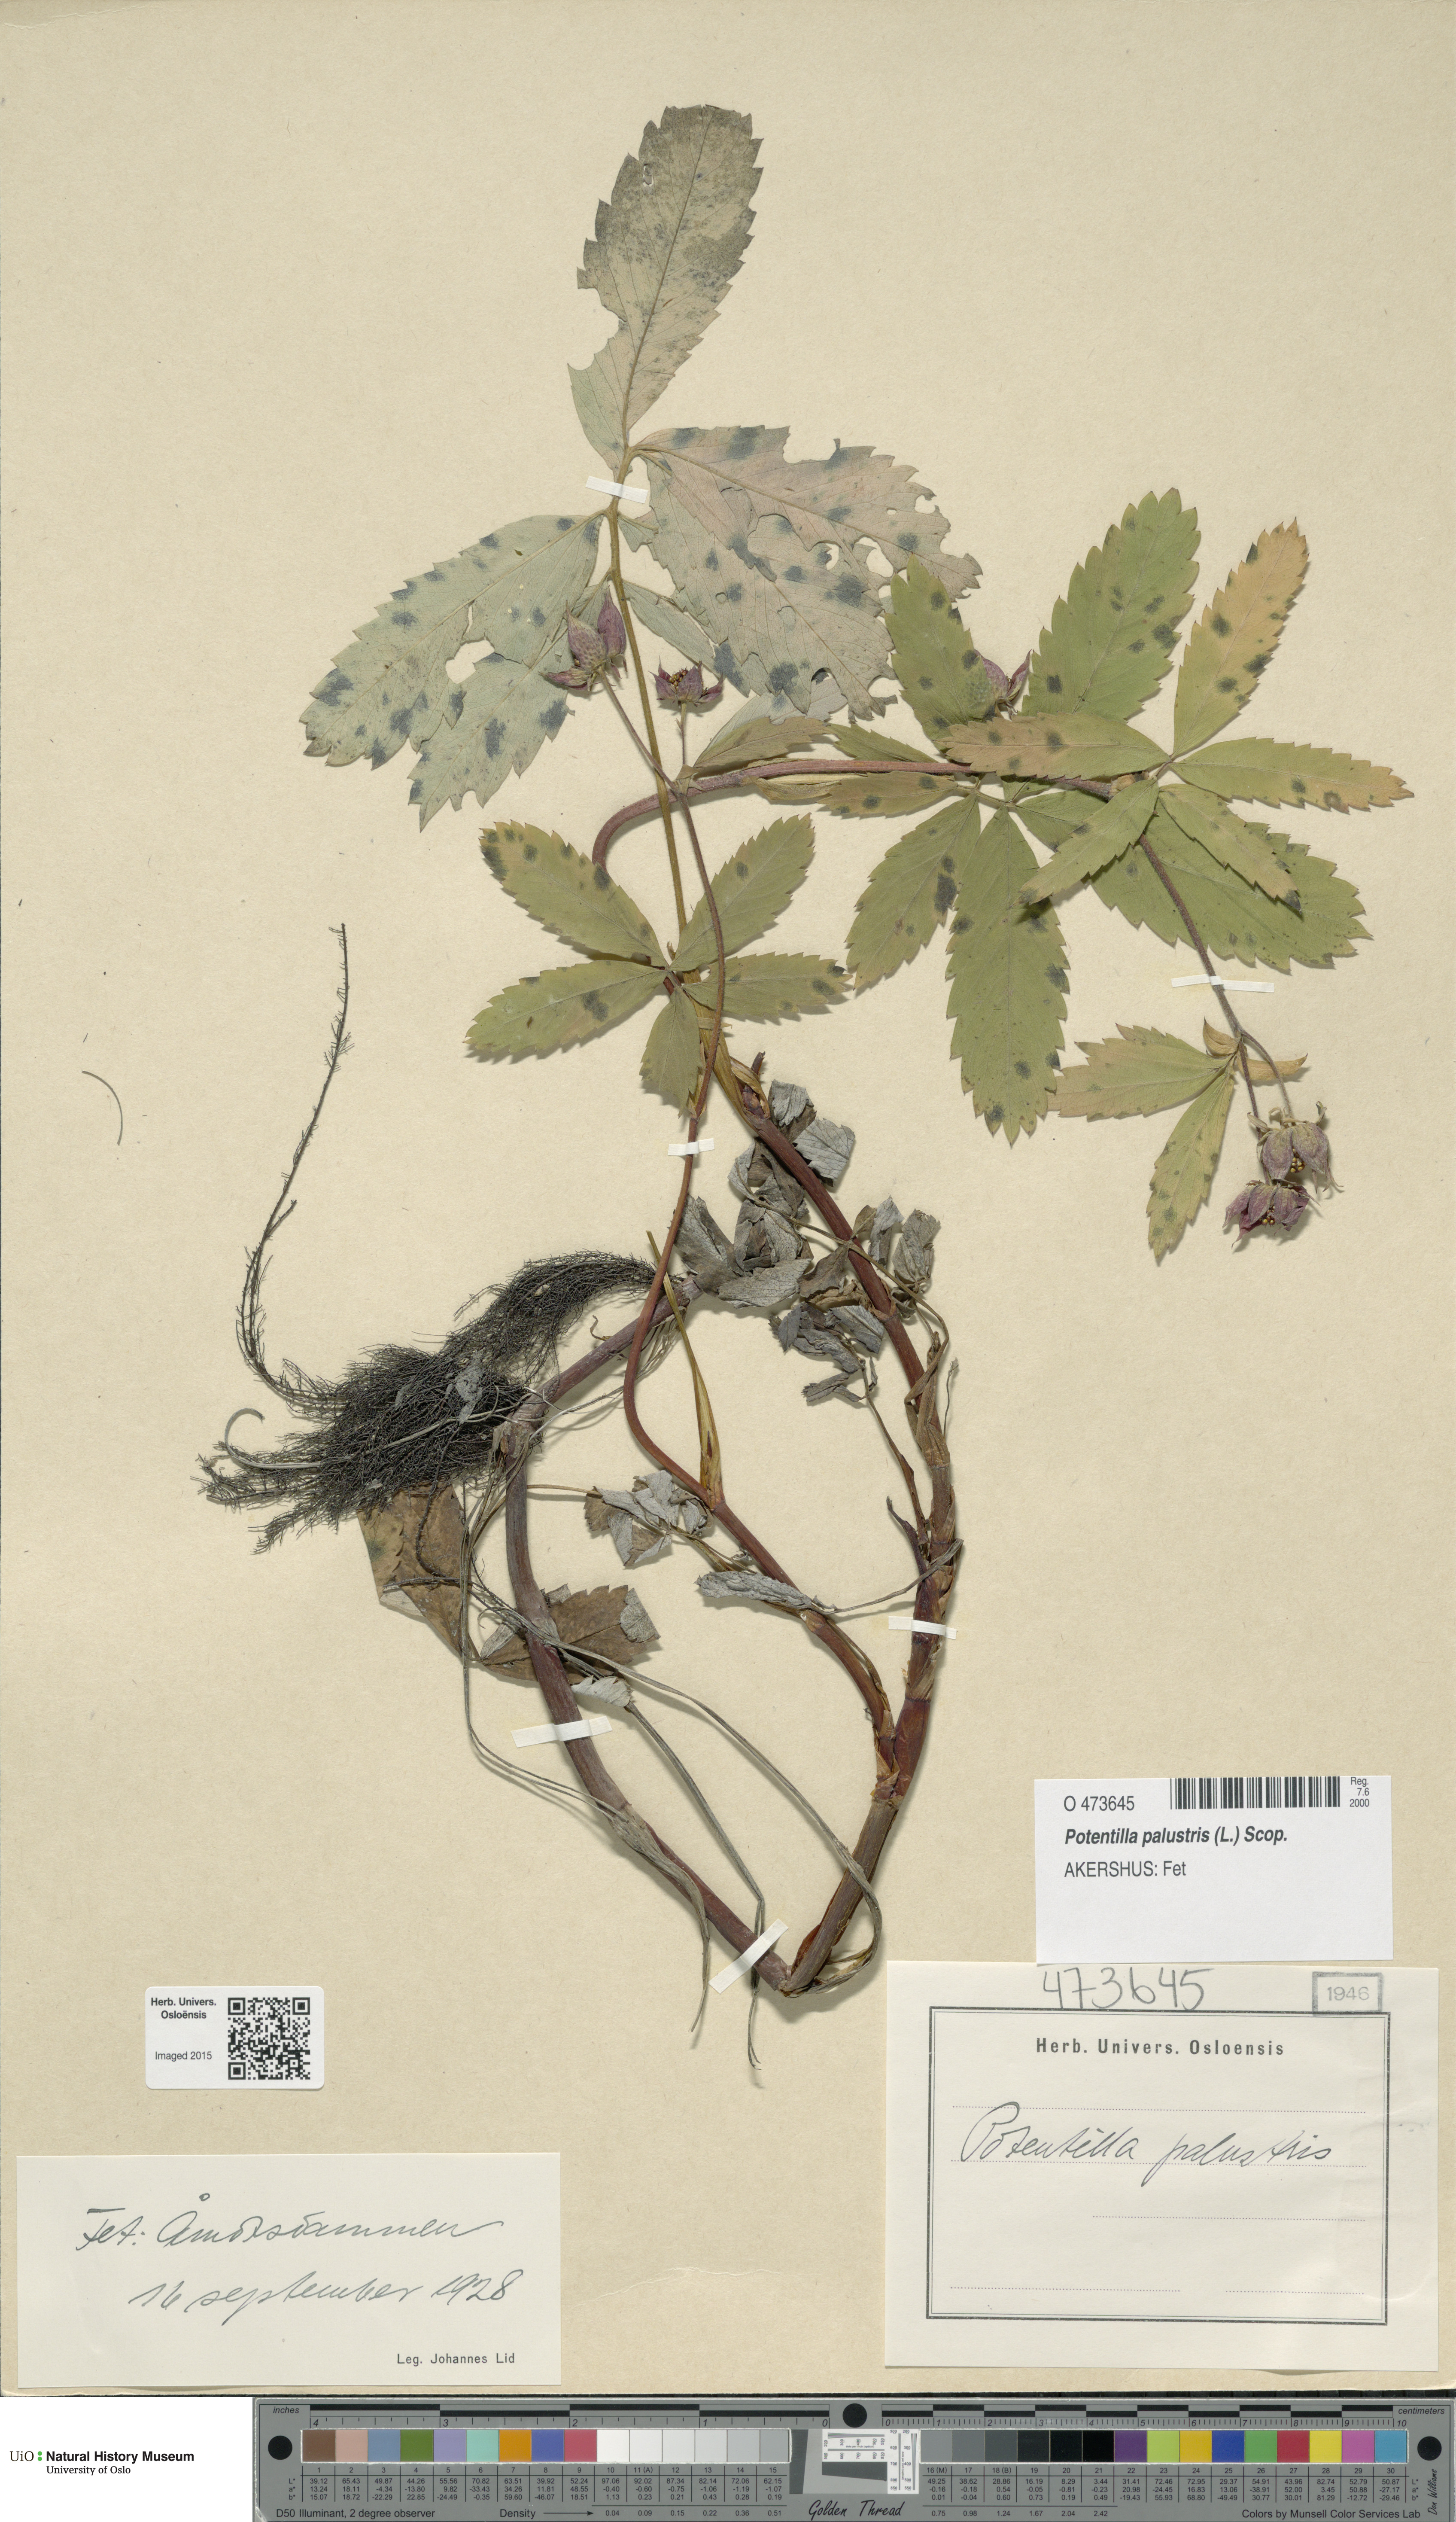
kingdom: Plantae
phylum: Tracheophyta
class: Magnoliopsida
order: Rosales
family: Rosaceae
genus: Comarum
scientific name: Comarum palustre
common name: Marsh cinquefoil
